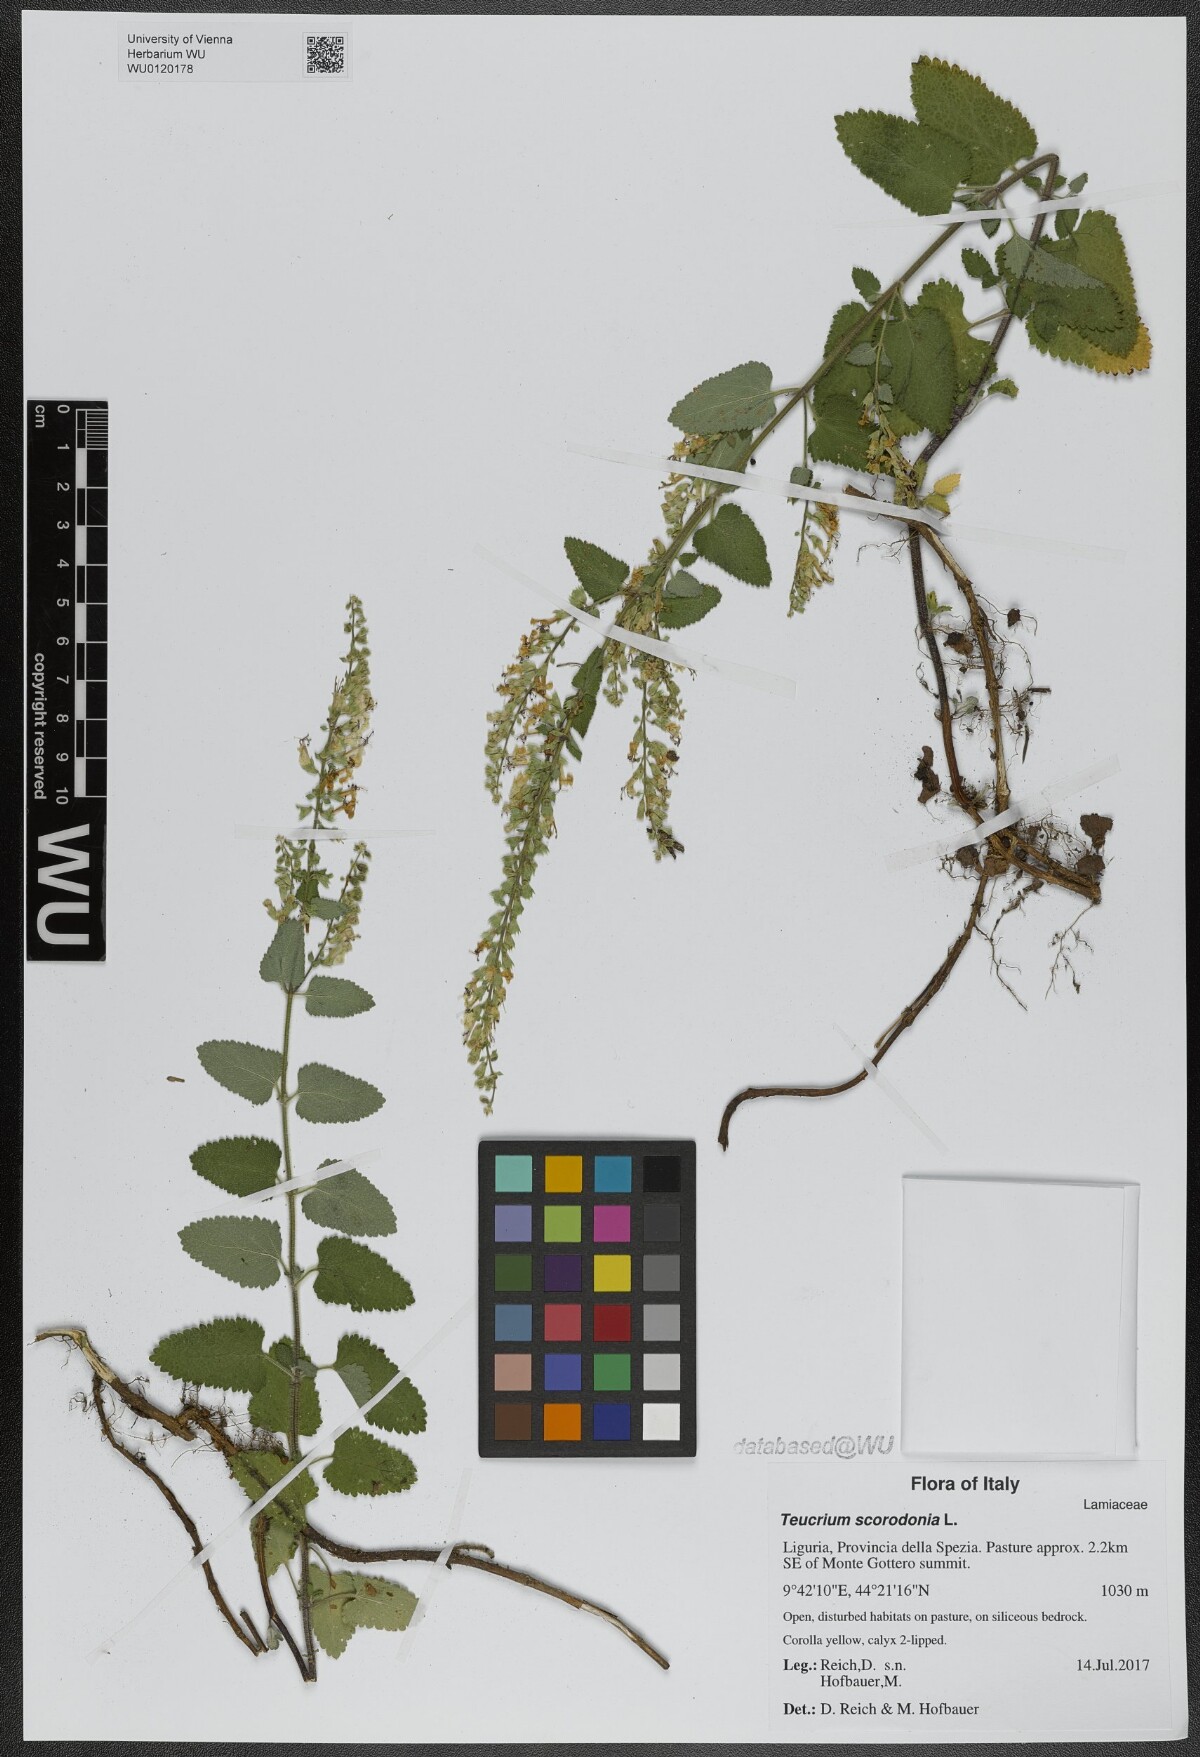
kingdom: Plantae
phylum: Tracheophyta
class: Magnoliopsida
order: Lamiales
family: Lamiaceae
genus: Teucrium
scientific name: Teucrium scorodonia
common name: Woodland germander
